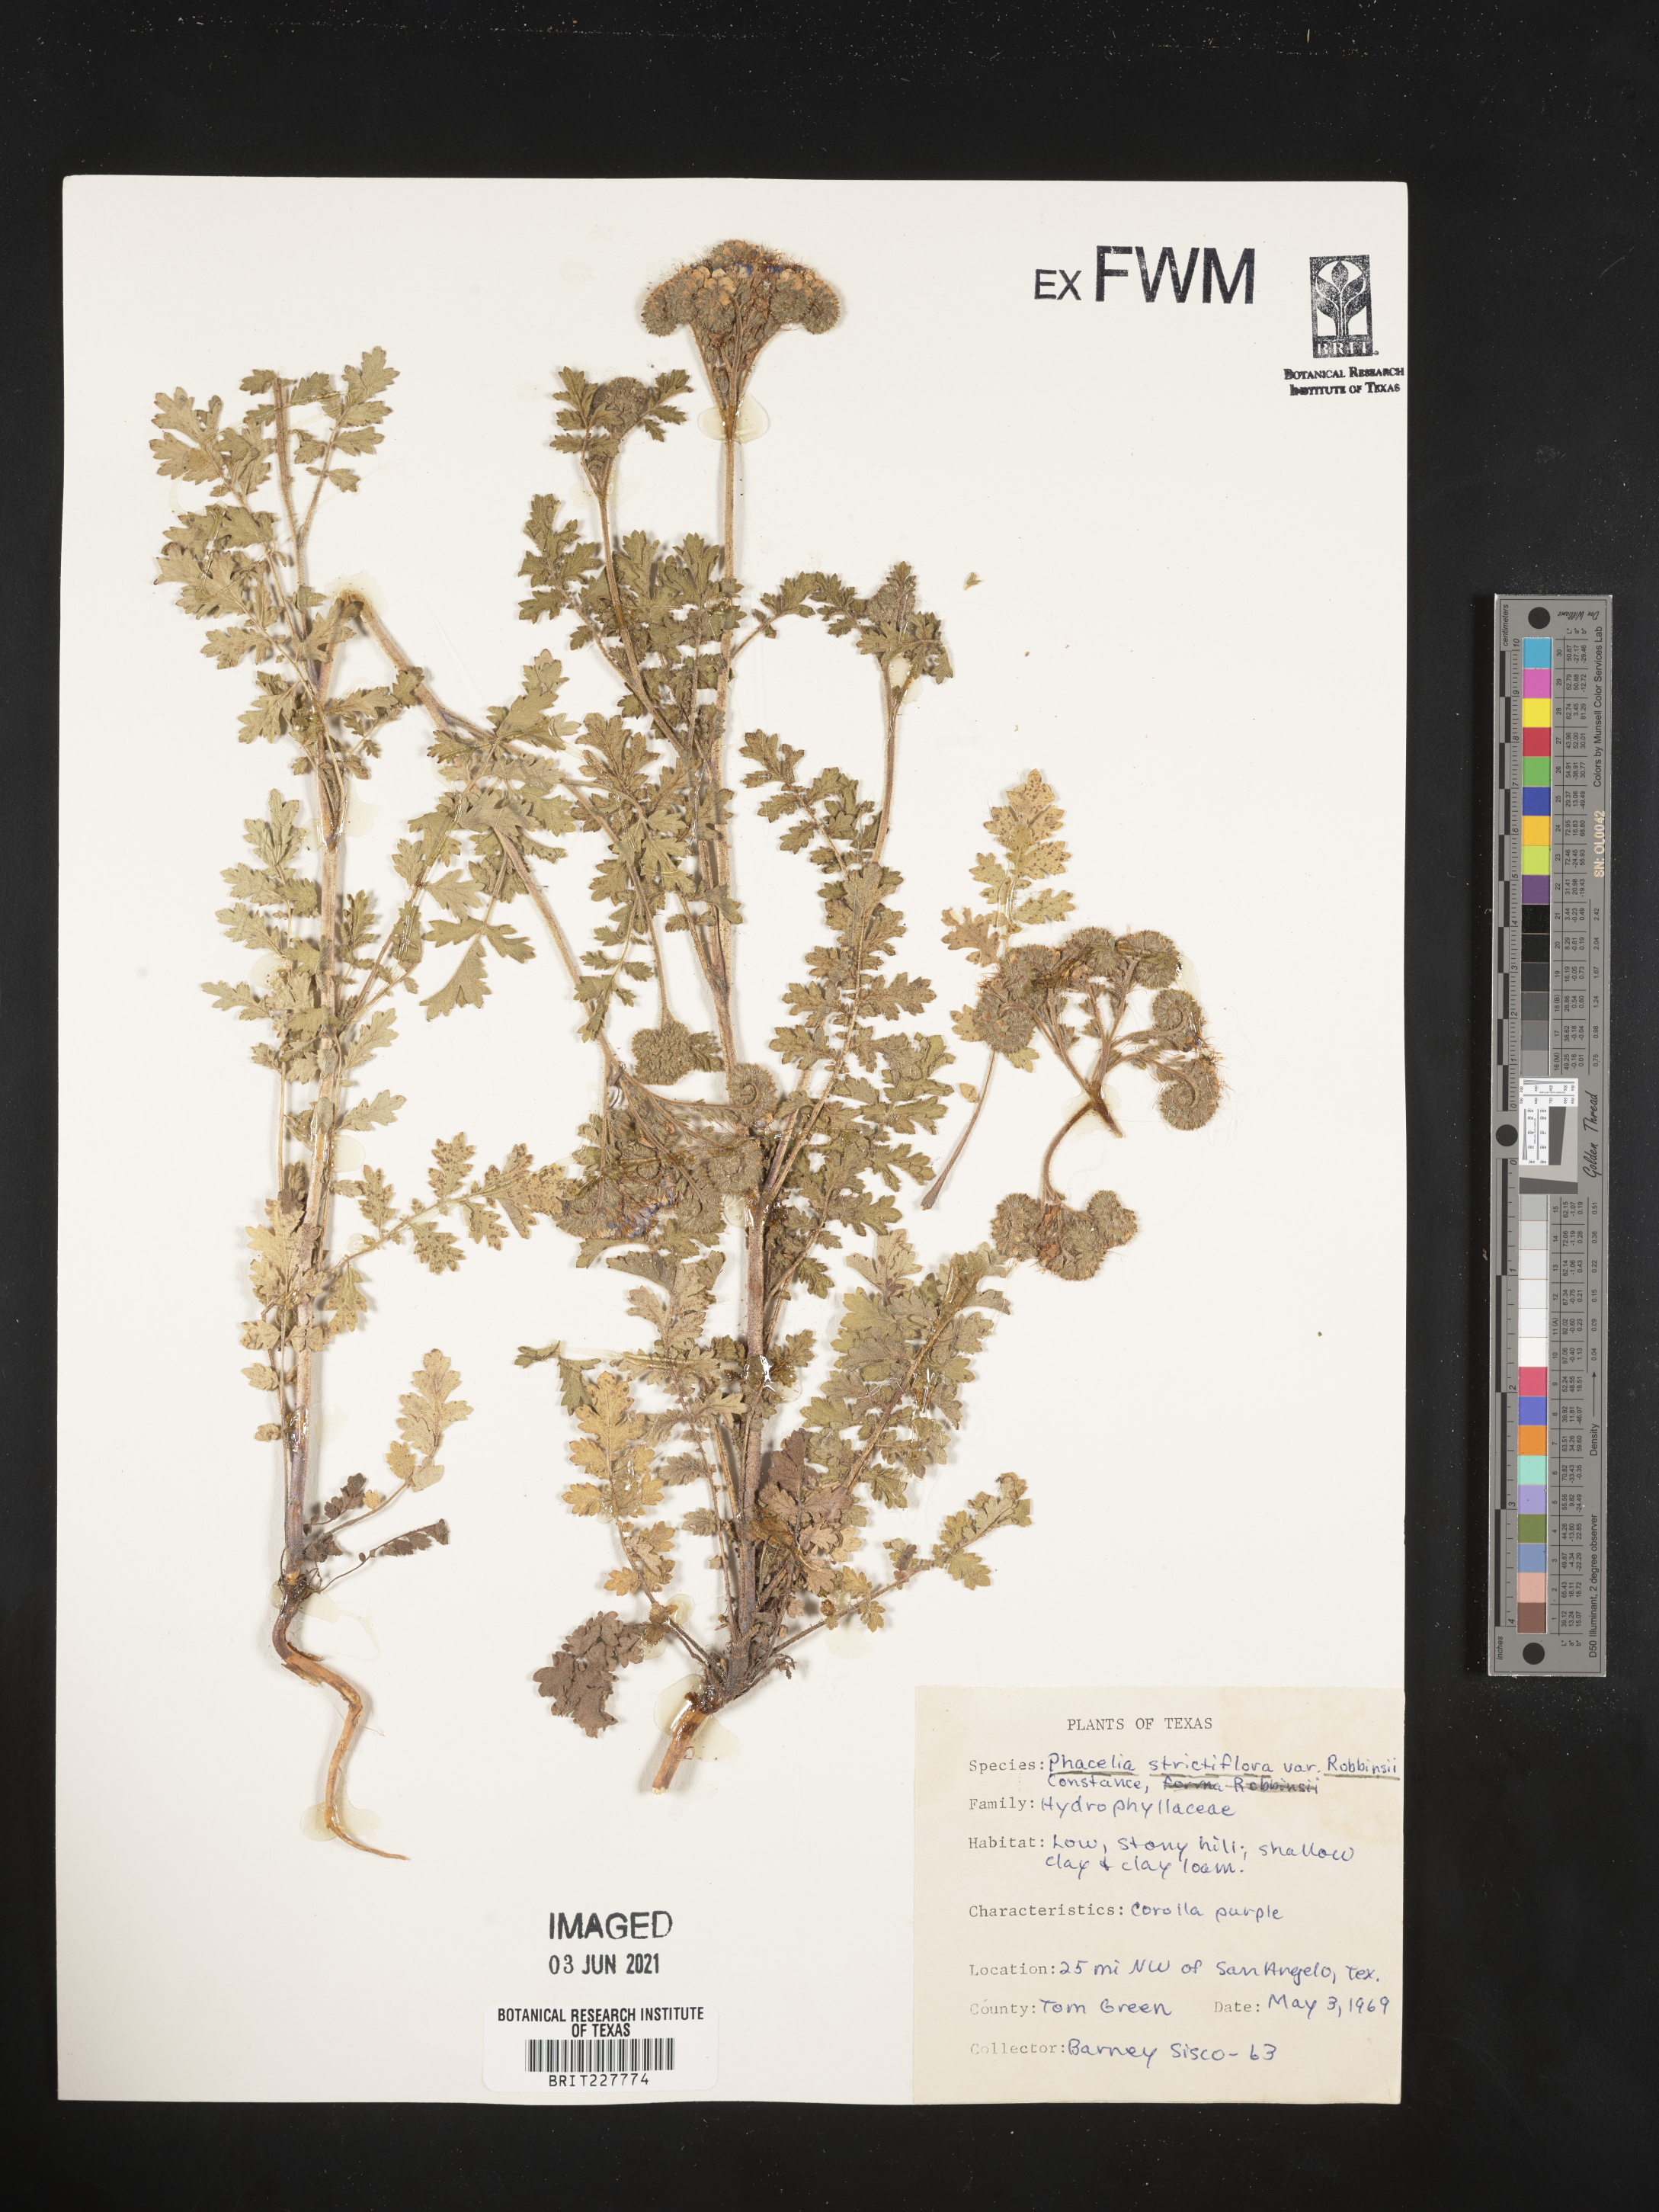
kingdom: Plantae
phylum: Tracheophyta
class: Magnoliopsida
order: Boraginales
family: Hydrophyllaceae
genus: Phacelia
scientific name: Phacelia strictiflora
